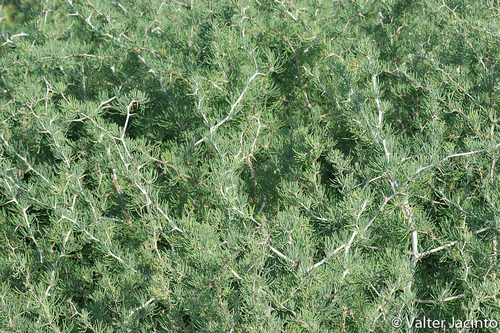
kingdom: Plantae
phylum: Tracheophyta
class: Liliopsida
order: Asparagales
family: Asparagaceae
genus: Asparagus
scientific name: Asparagus albus
